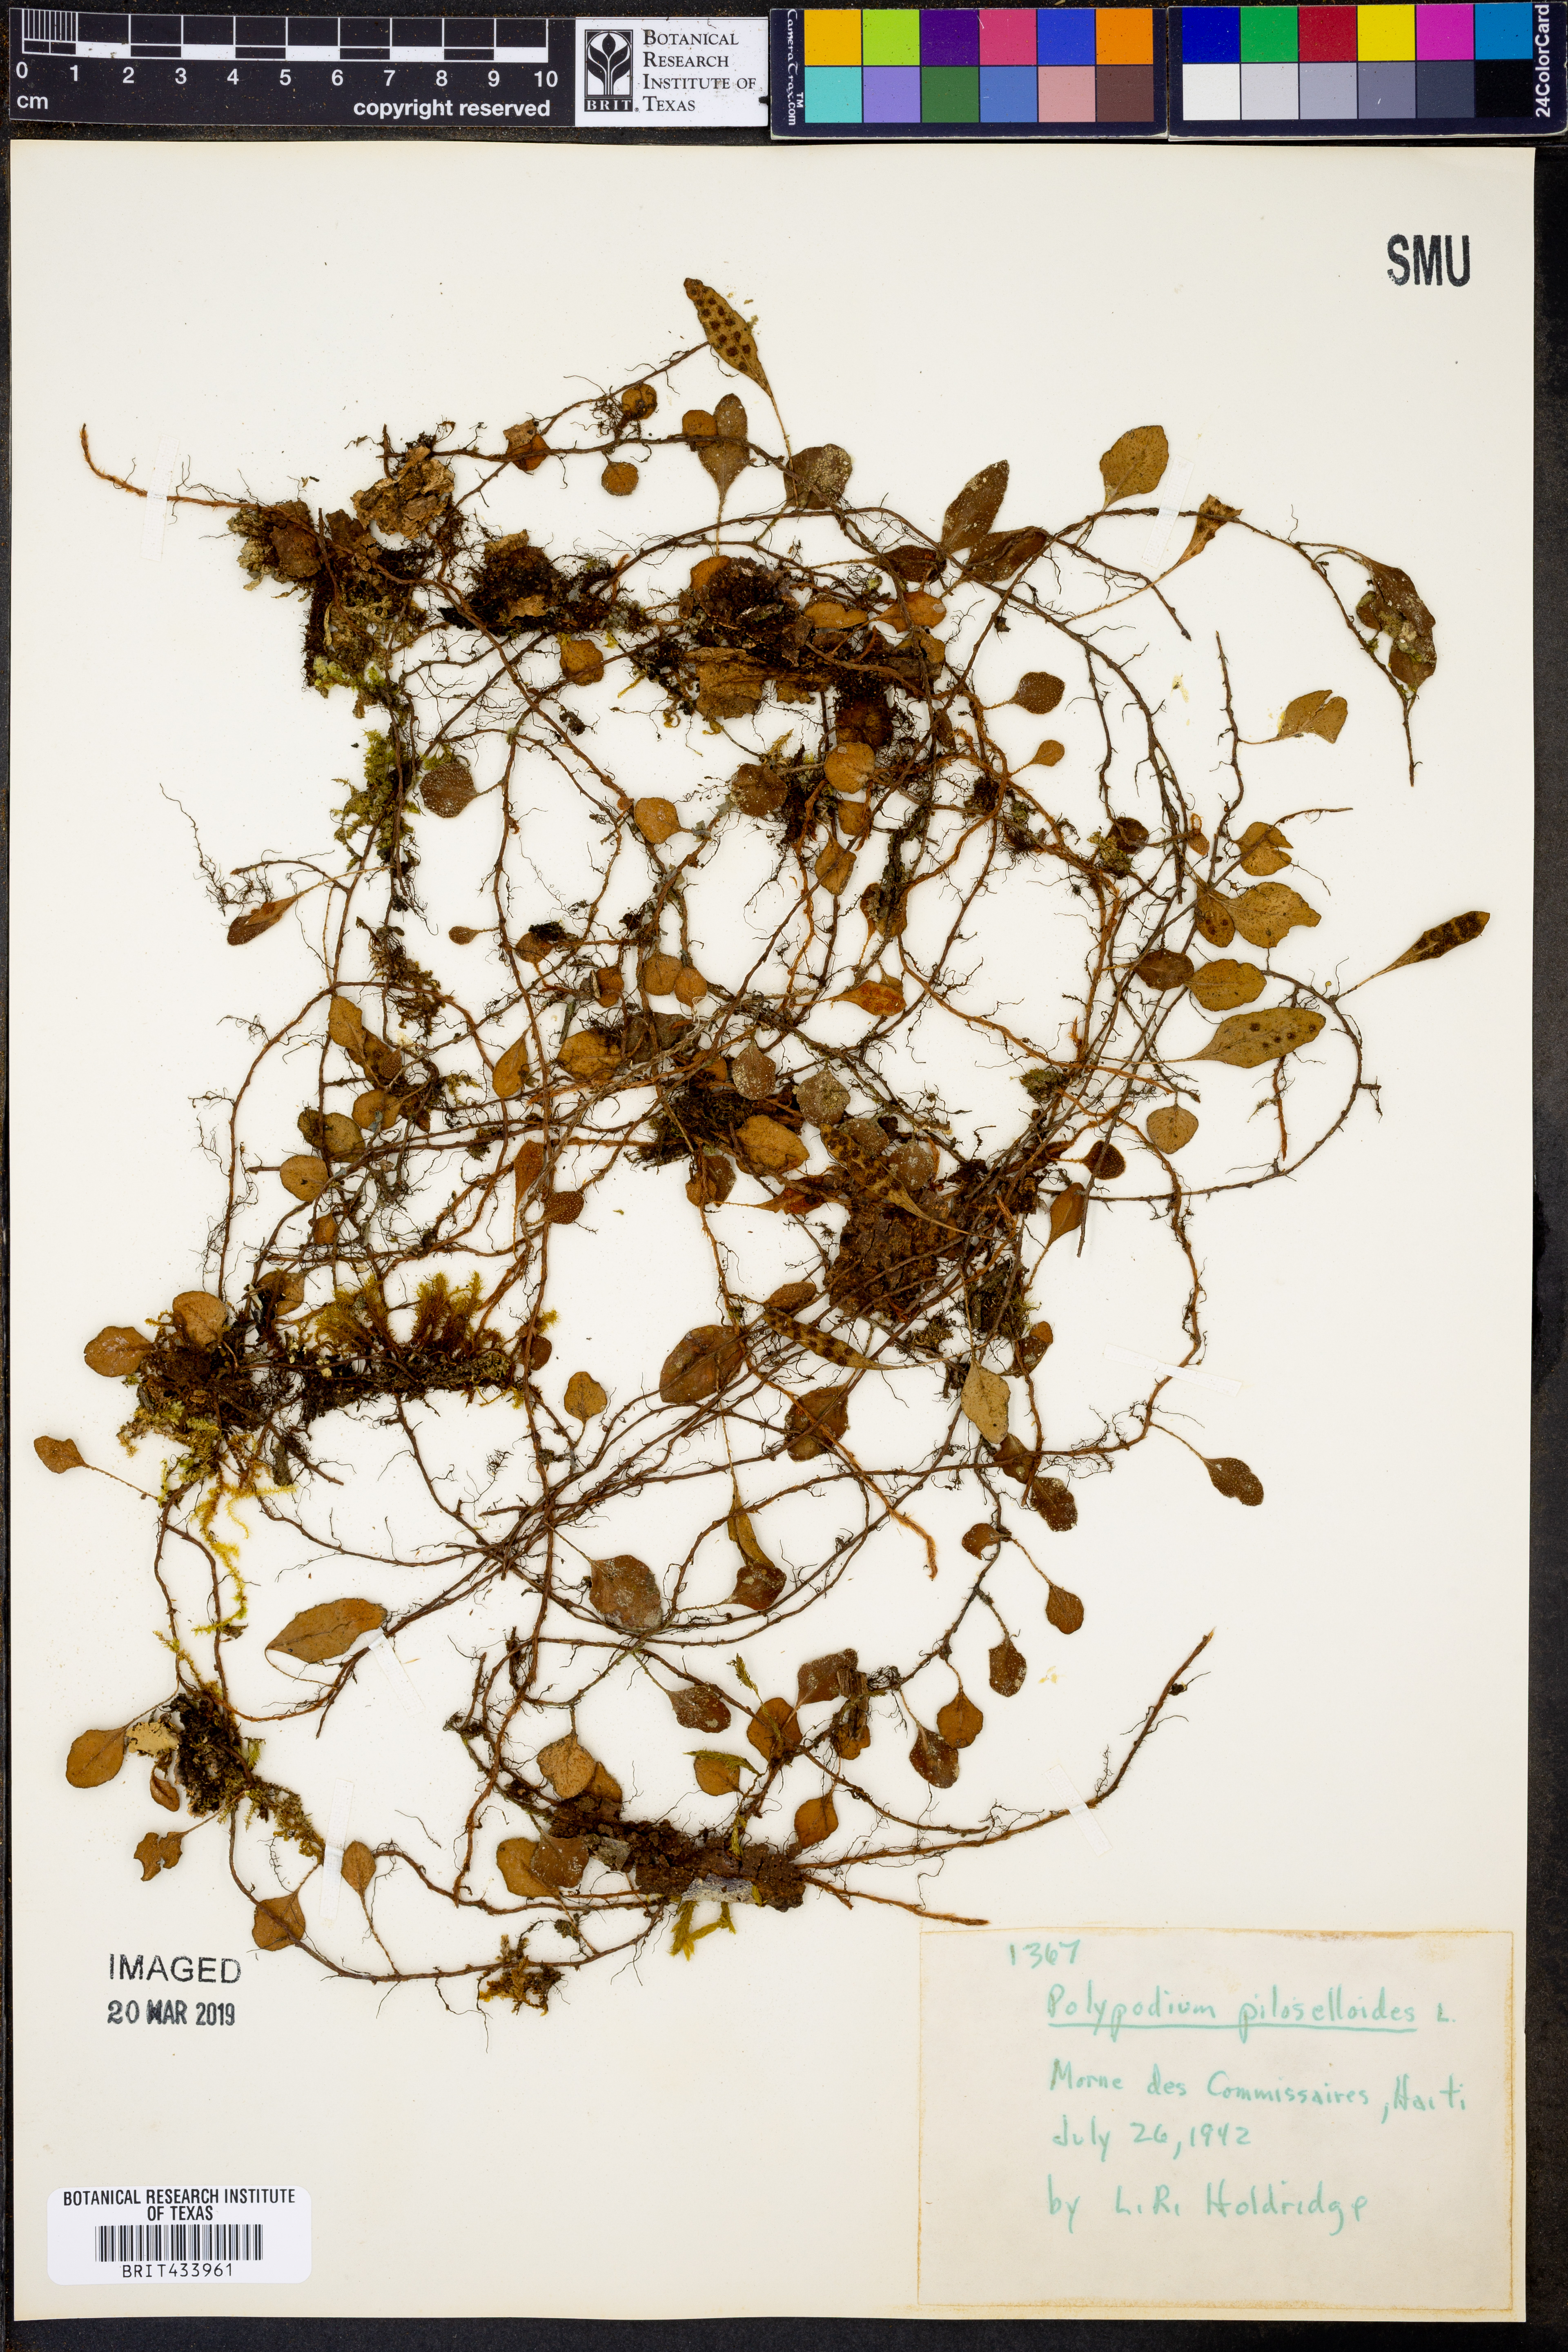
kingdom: Plantae
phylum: Tracheophyta
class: Polypodiopsida
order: Polypodiales
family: Polypodiaceae
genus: Microgramma
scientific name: Microgramma piloselloides
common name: Hairy snakefern
